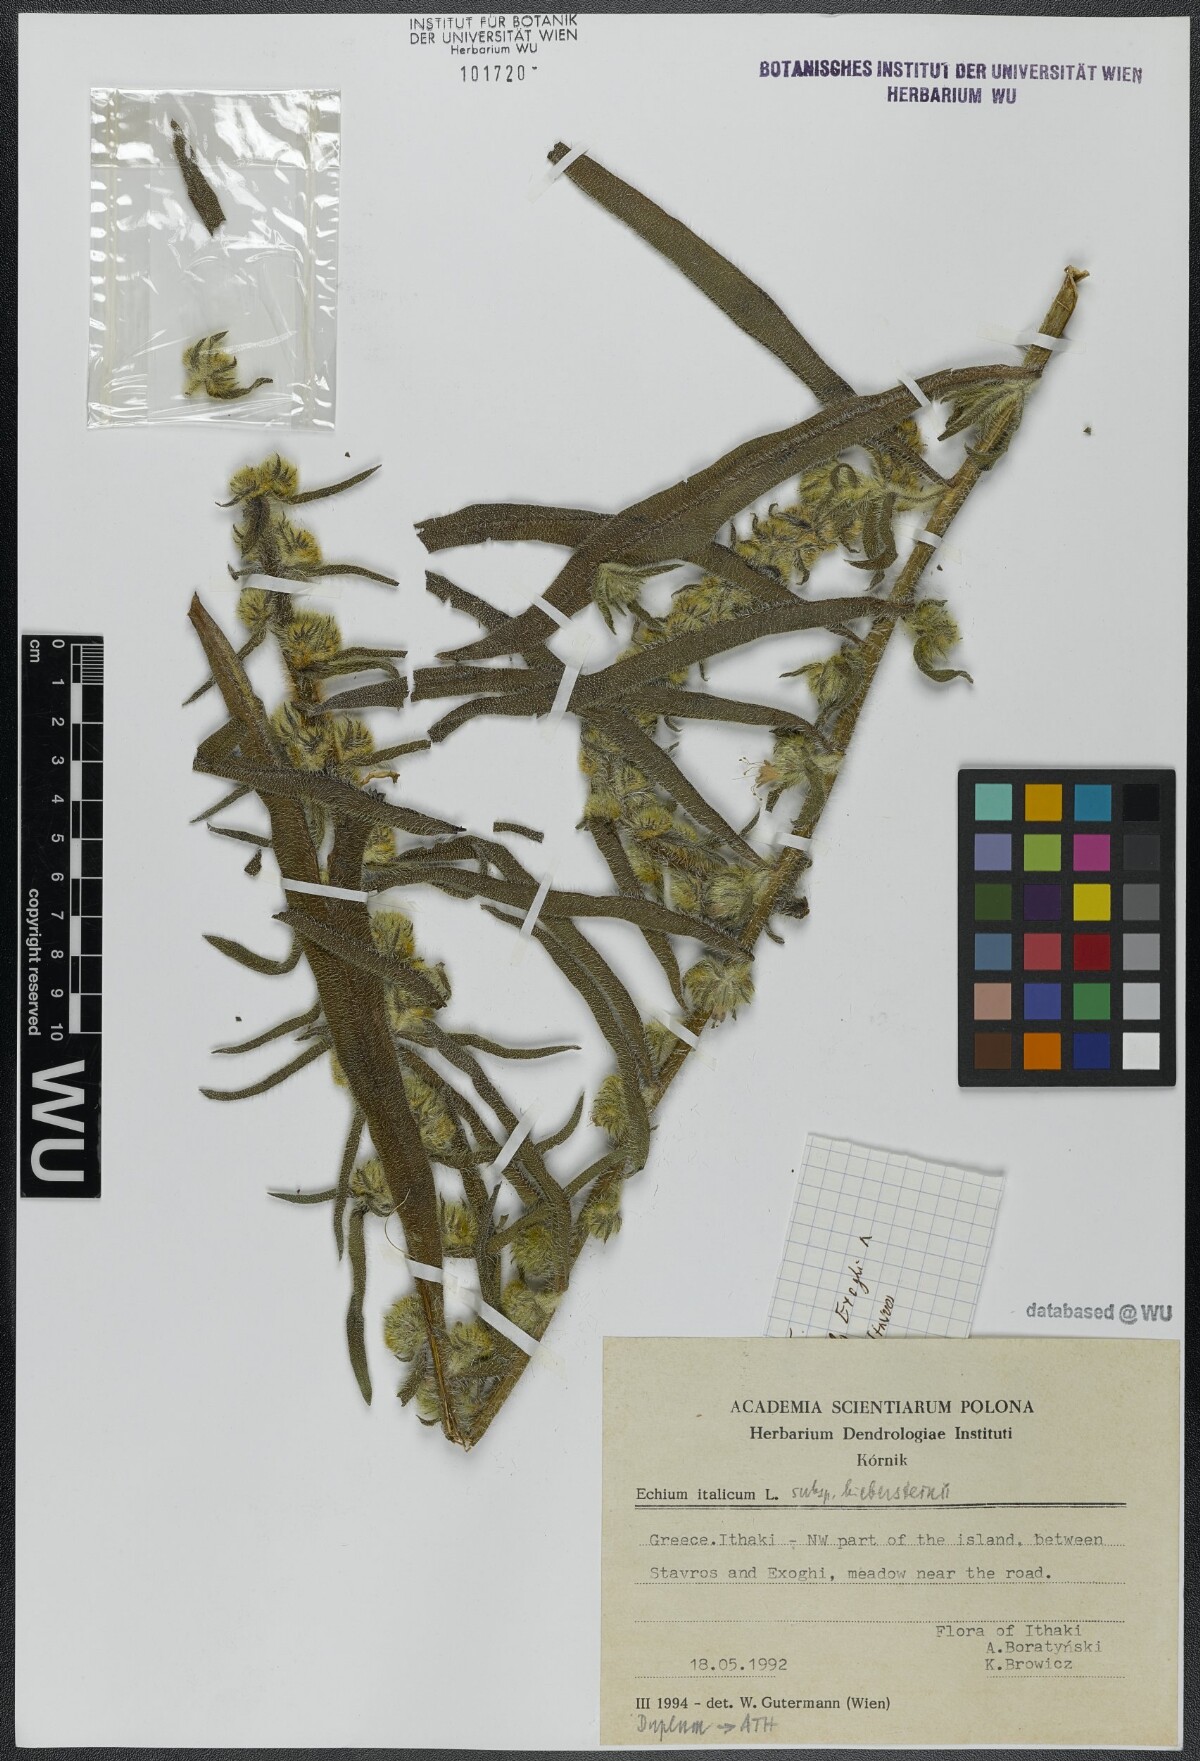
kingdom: Plantae
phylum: Tracheophyta
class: Magnoliopsida
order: Boraginales
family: Boraginaceae
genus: Echium
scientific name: Echium italicum
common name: Italian viper's bugloss
